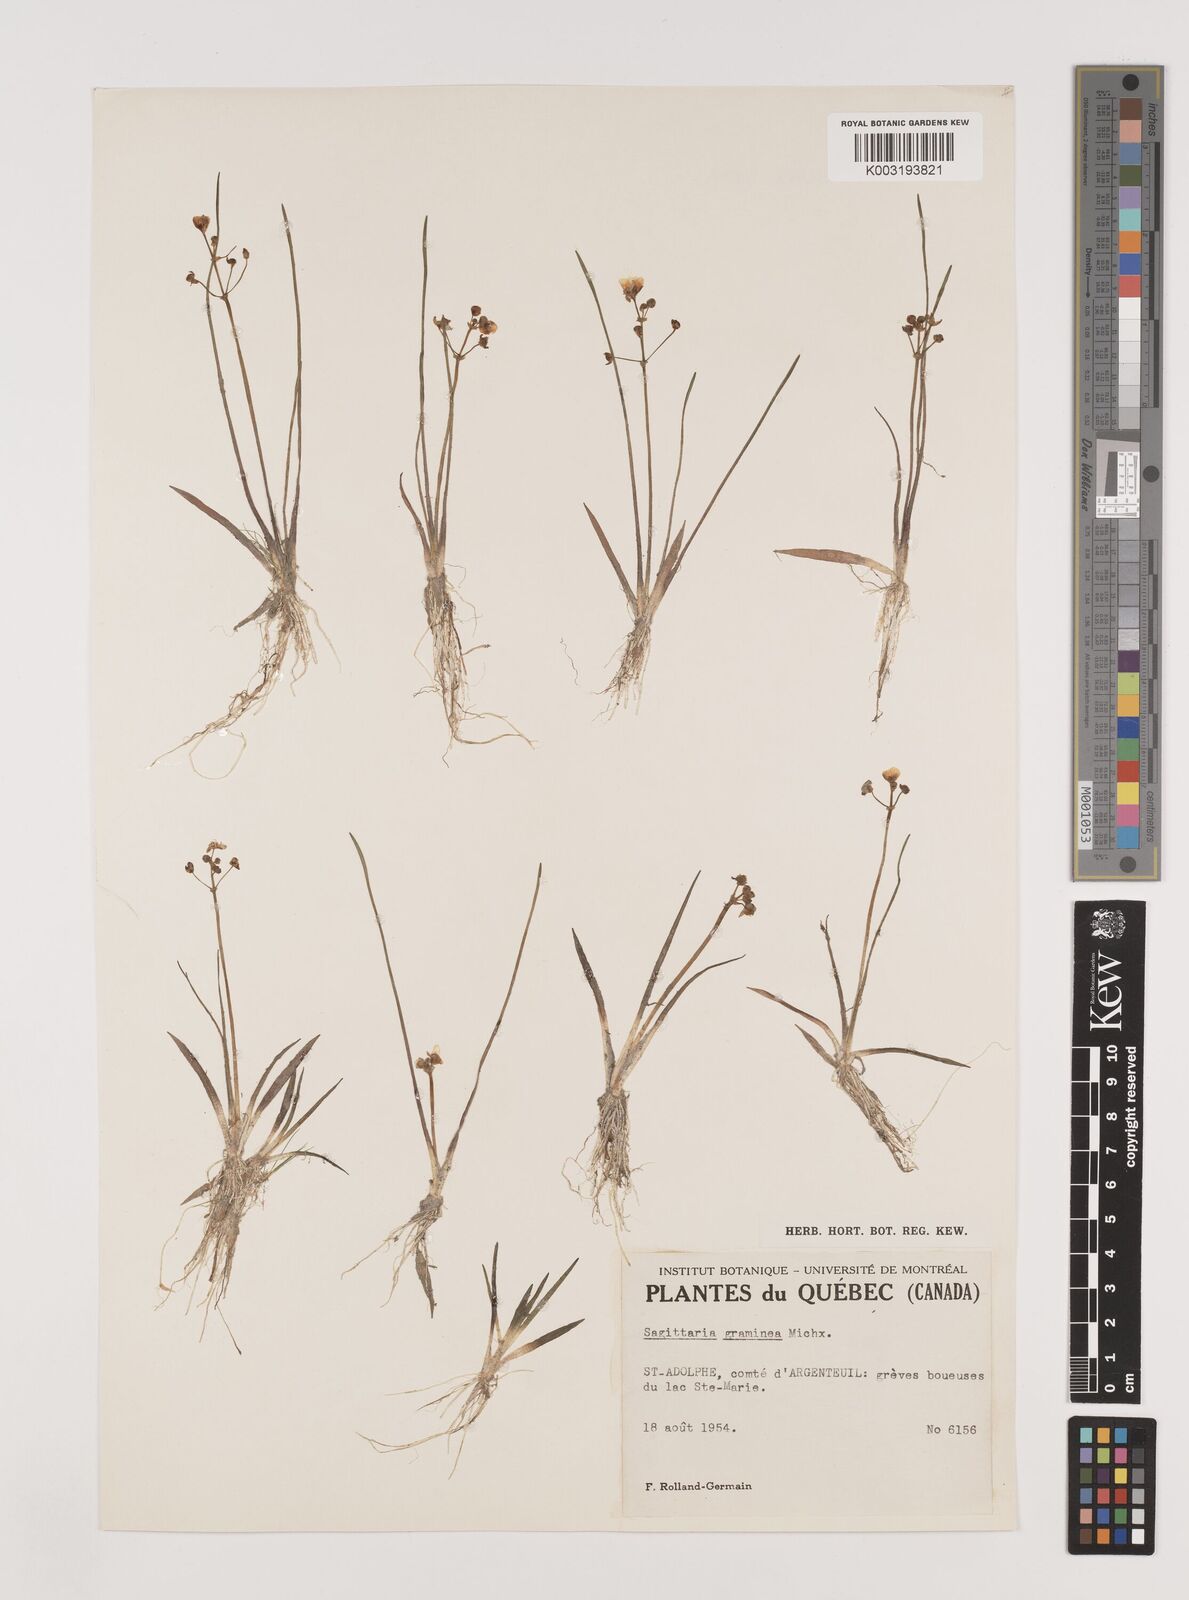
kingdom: Plantae
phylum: Tracheophyta
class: Liliopsida
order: Alismatales
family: Alismataceae
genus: Sagittaria
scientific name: Sagittaria graminea
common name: Grass-leaved arrowhead
